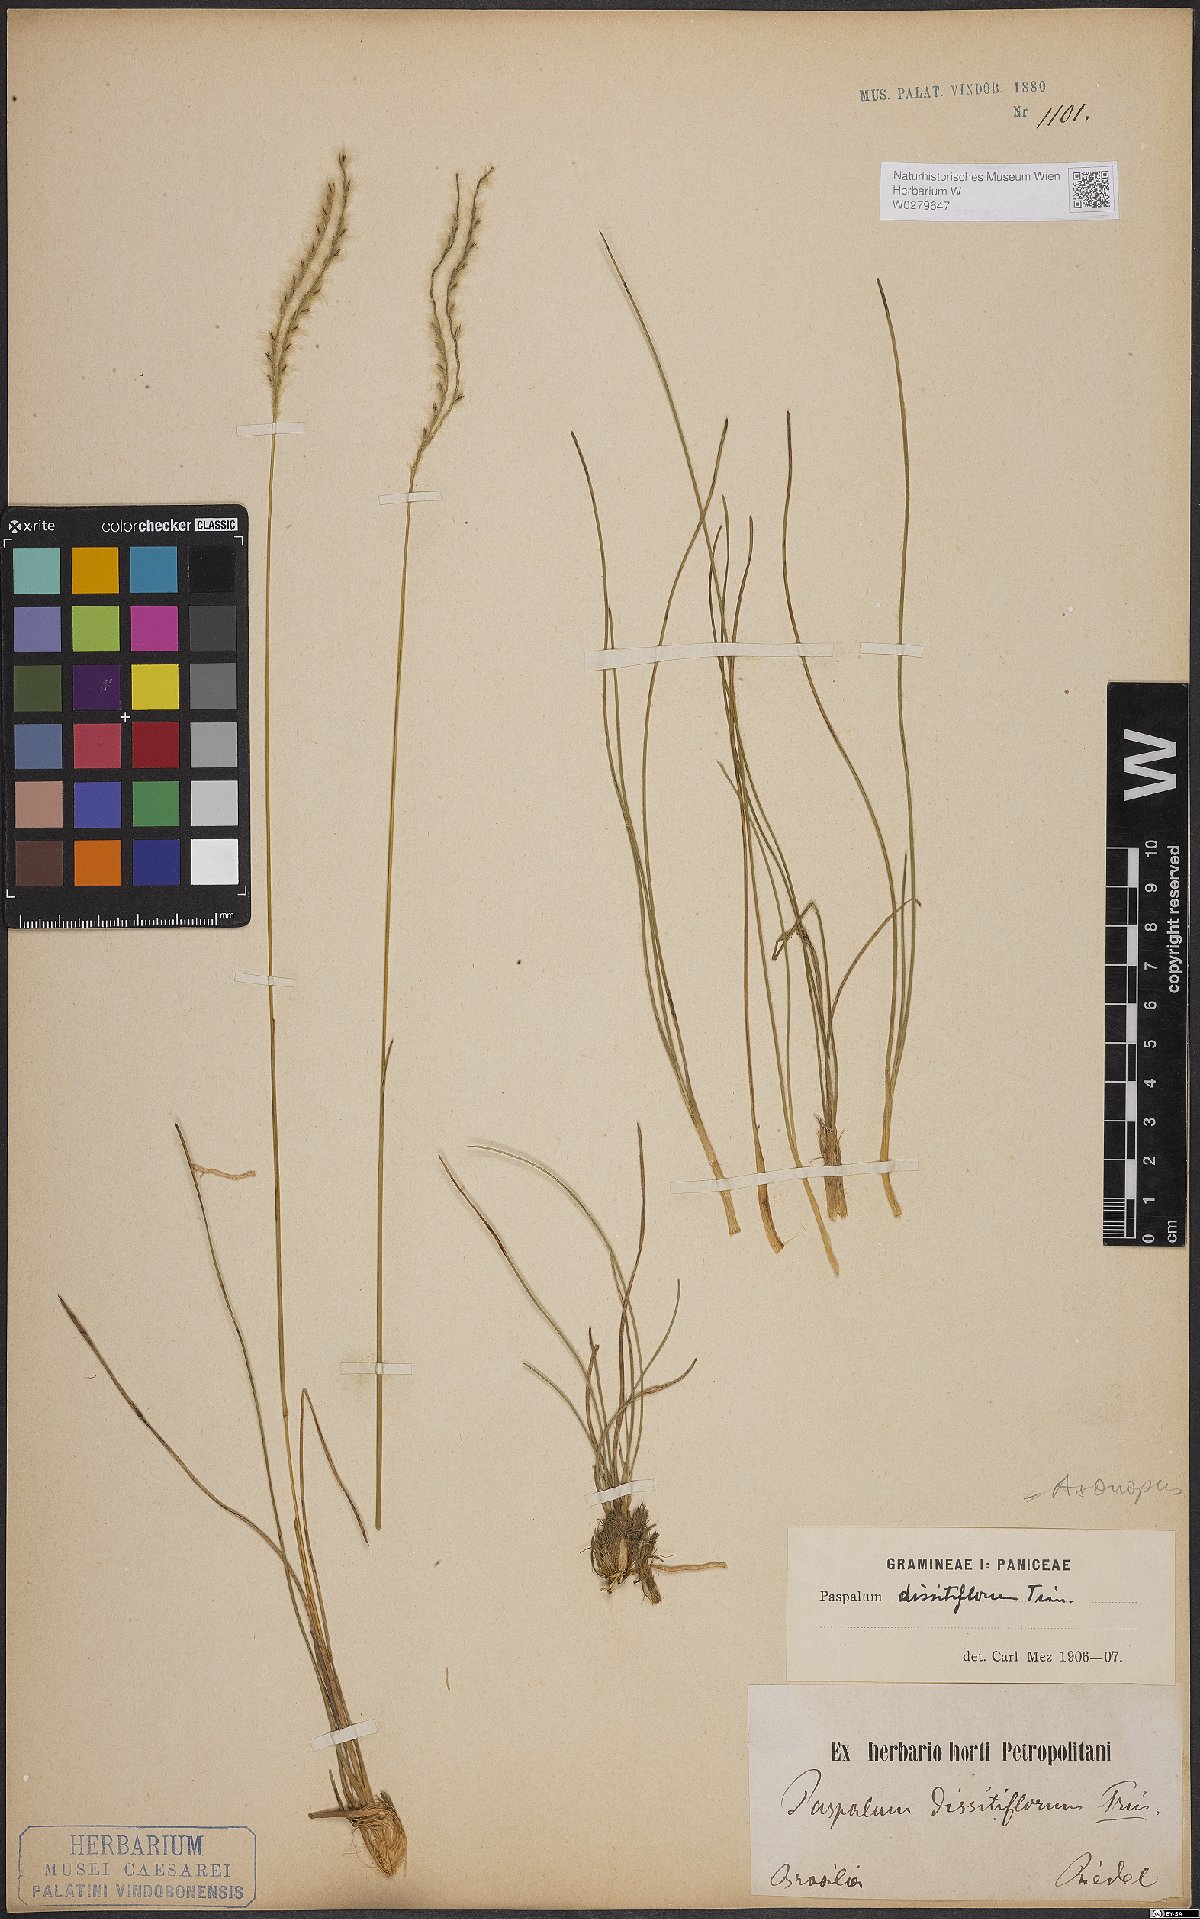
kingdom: Plantae
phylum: Tracheophyta
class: Liliopsida
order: Poales
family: Poaceae
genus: Axonopus
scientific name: Axonopus brasiliensis
